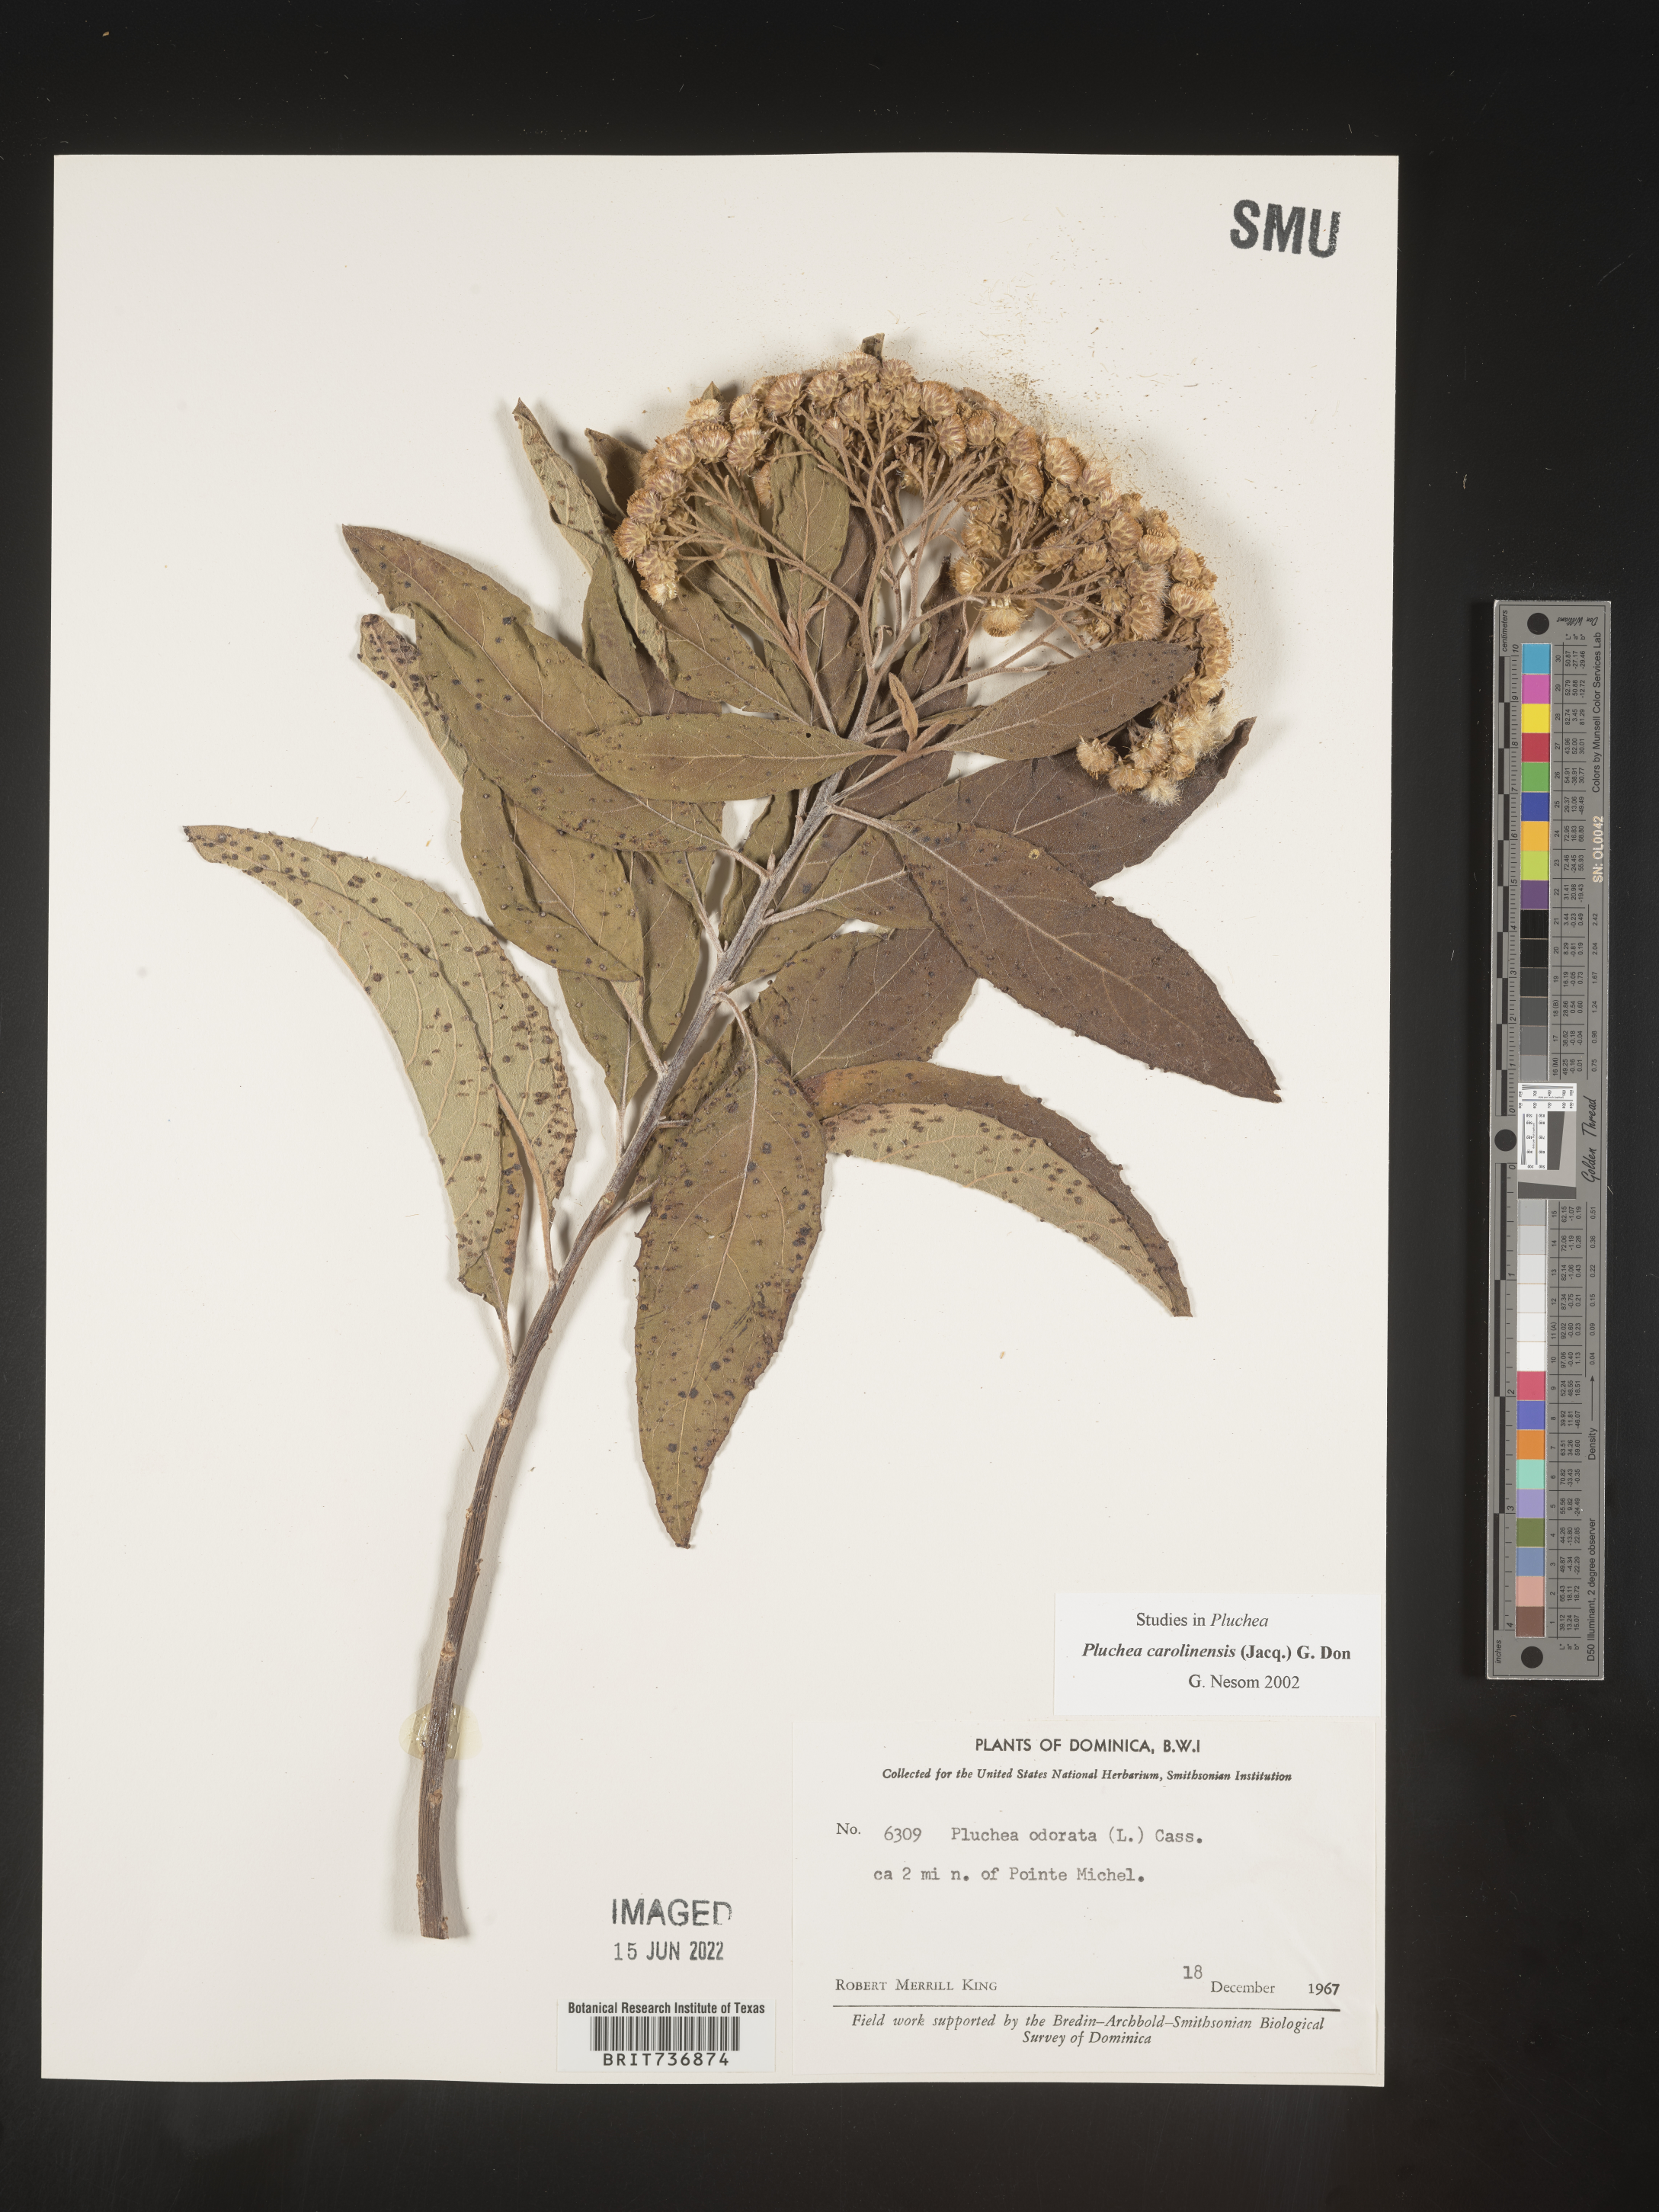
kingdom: Plantae
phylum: Tracheophyta
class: Magnoliopsida
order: Asterales
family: Asteraceae
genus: Pluchea
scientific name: Pluchea
